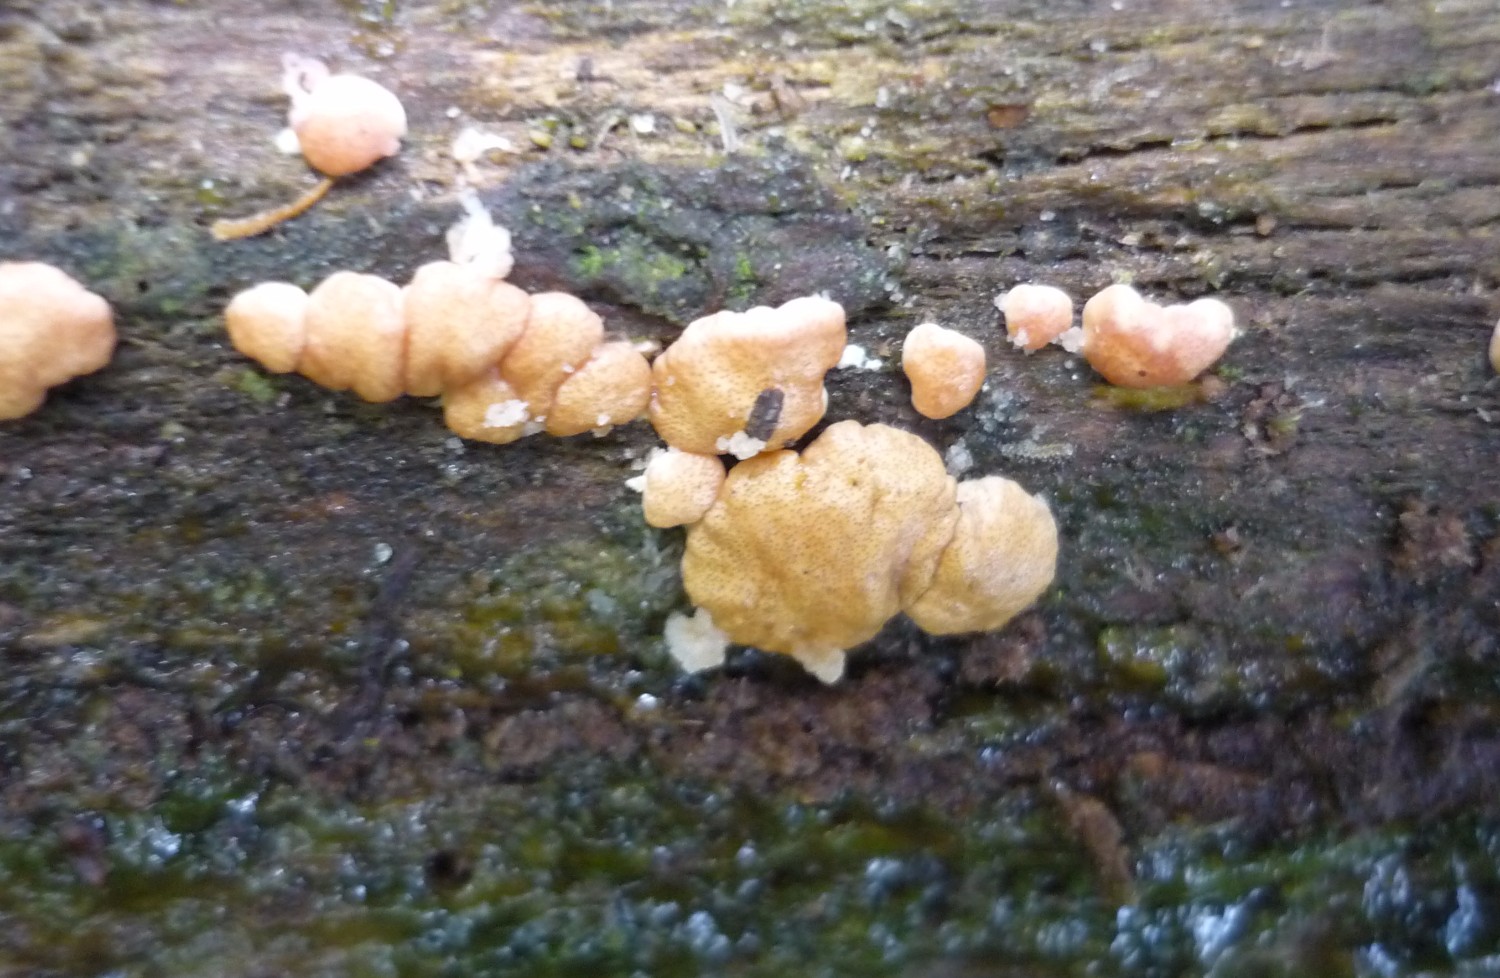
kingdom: Fungi
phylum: Ascomycota
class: Sordariomycetes
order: Hypocreales
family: Hypocreaceae
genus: Trichoderma
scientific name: Trichoderma europaeum
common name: rosabrun kødkerne
